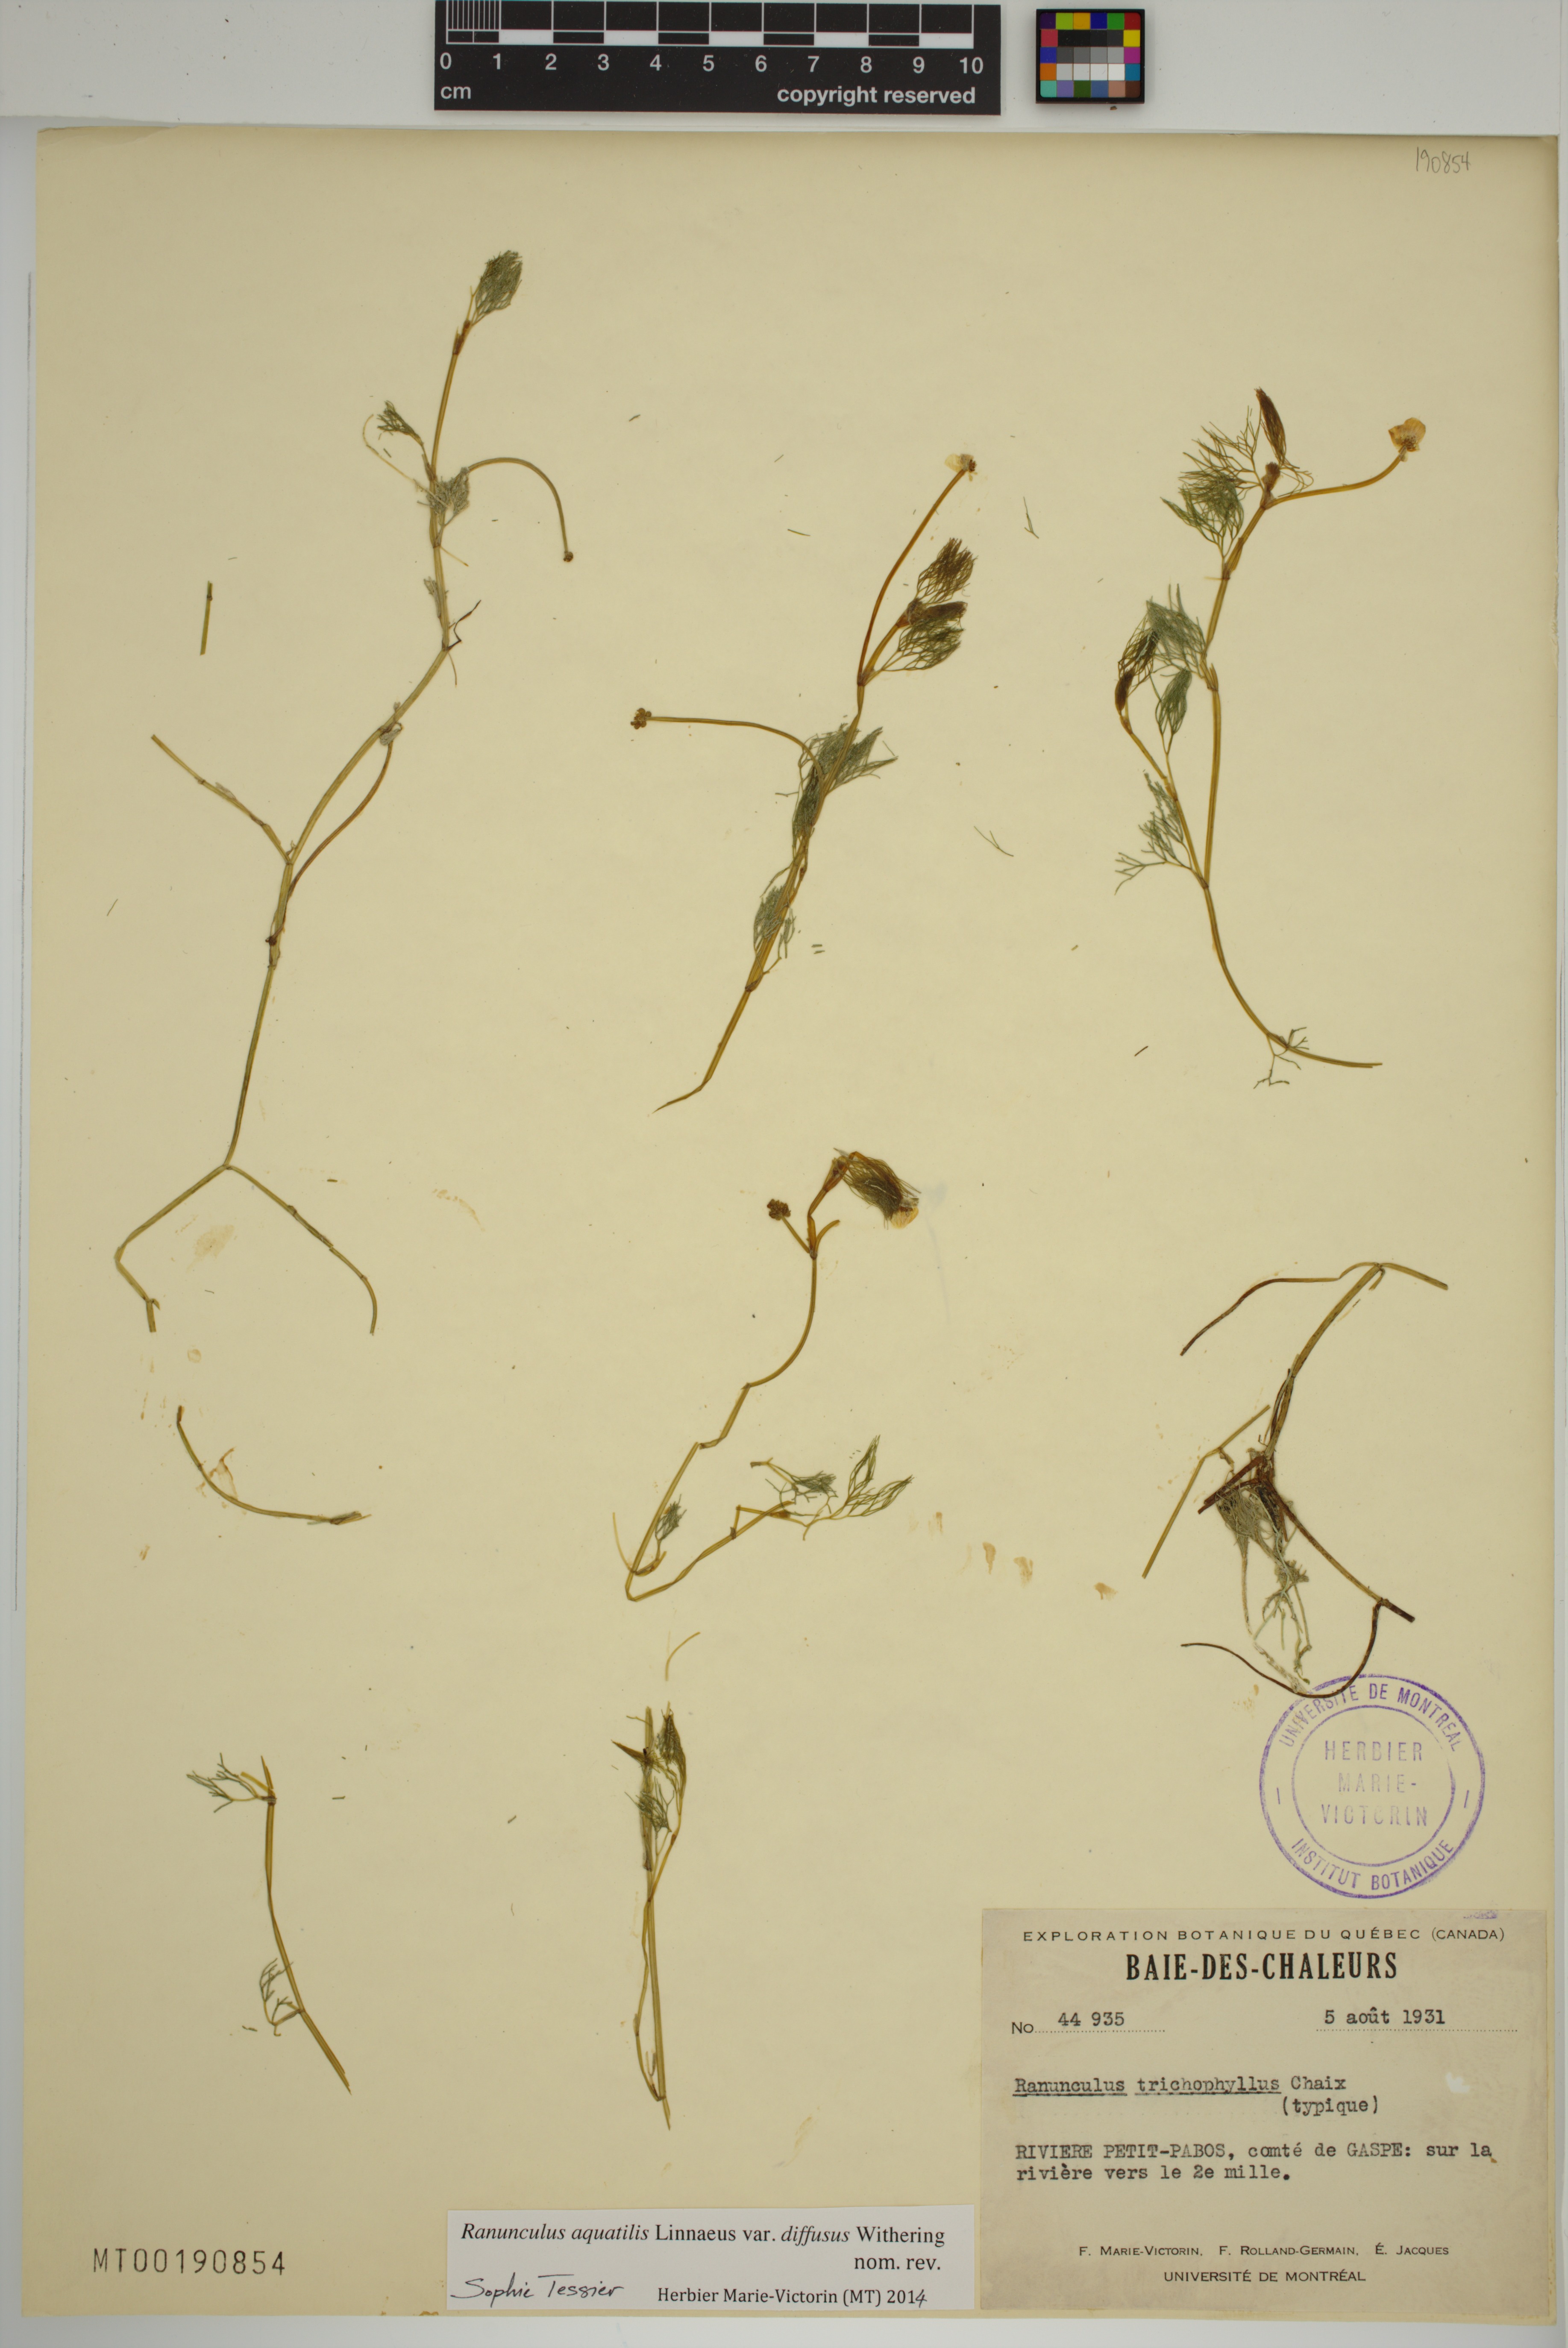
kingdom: Plantae
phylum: Tracheophyta
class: Magnoliopsida
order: Ranunculales
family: Ranunculaceae
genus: Ranunculus
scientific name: Ranunculus trichophyllus
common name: Thread-leaved water-crowfoot
